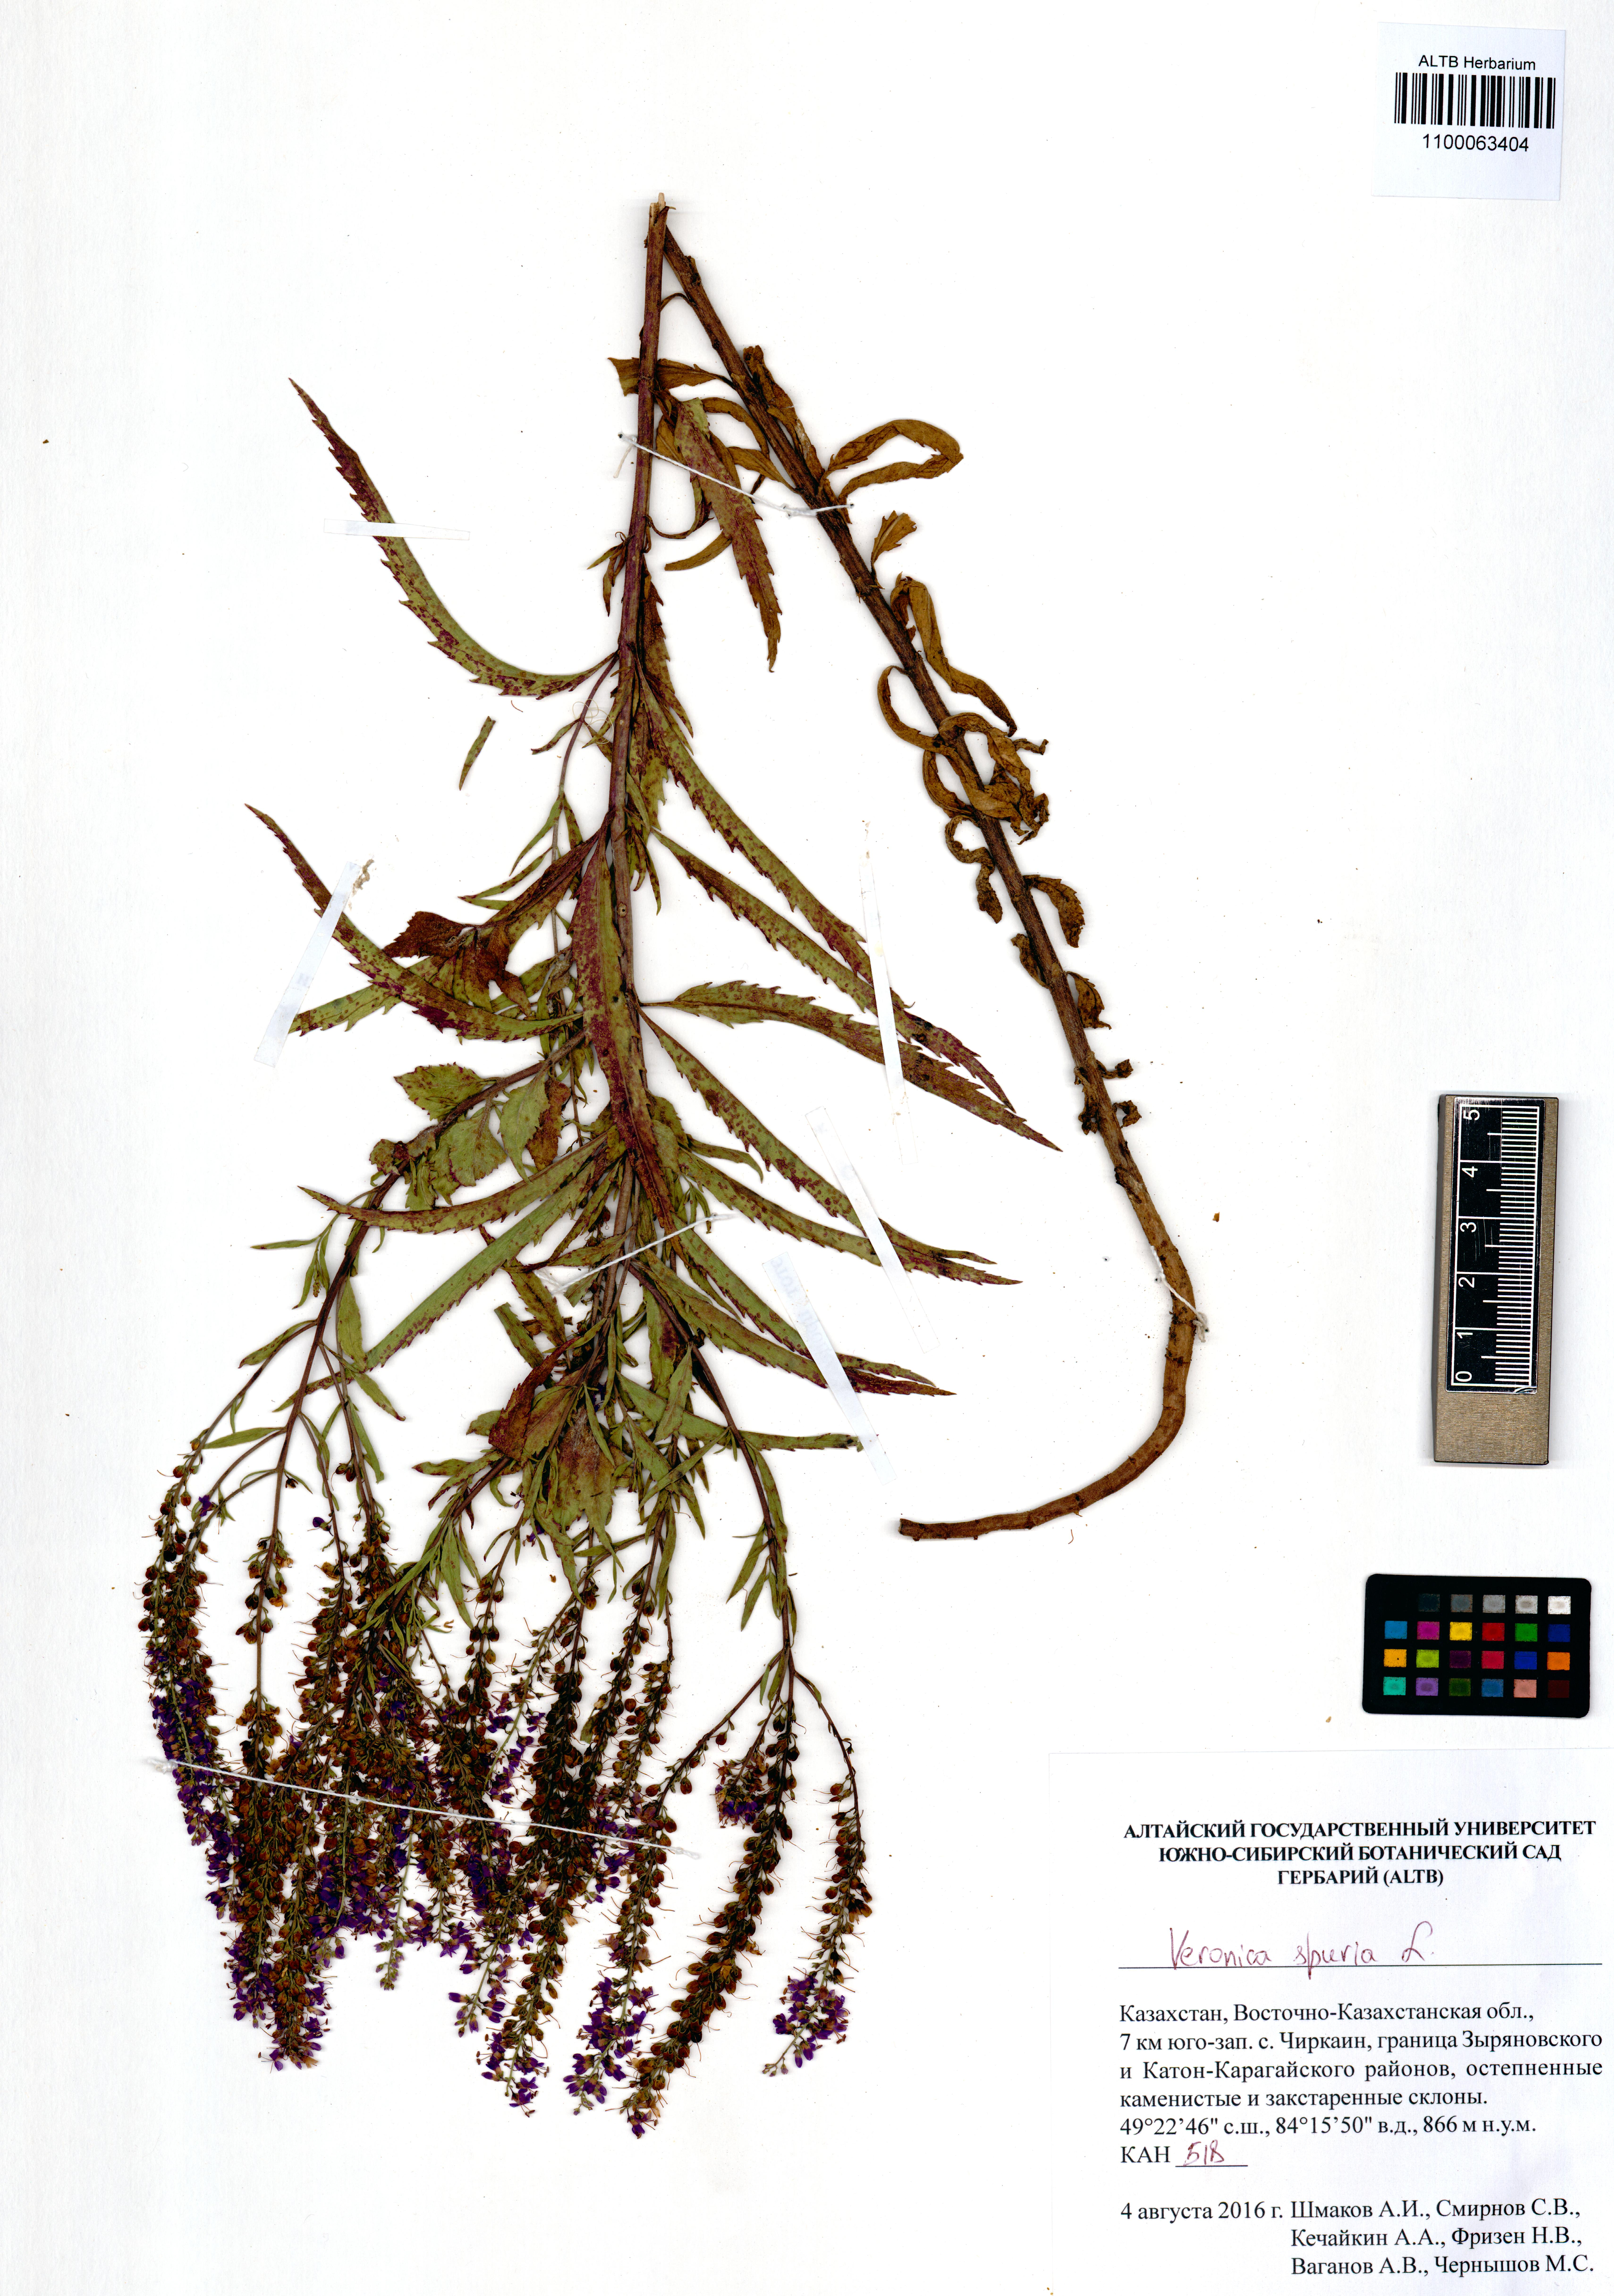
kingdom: Plantae
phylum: Tracheophyta
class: Magnoliopsida
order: Lamiales
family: Plantaginaceae
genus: Veronica
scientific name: Veronica spuria
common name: Bastard speedwell
